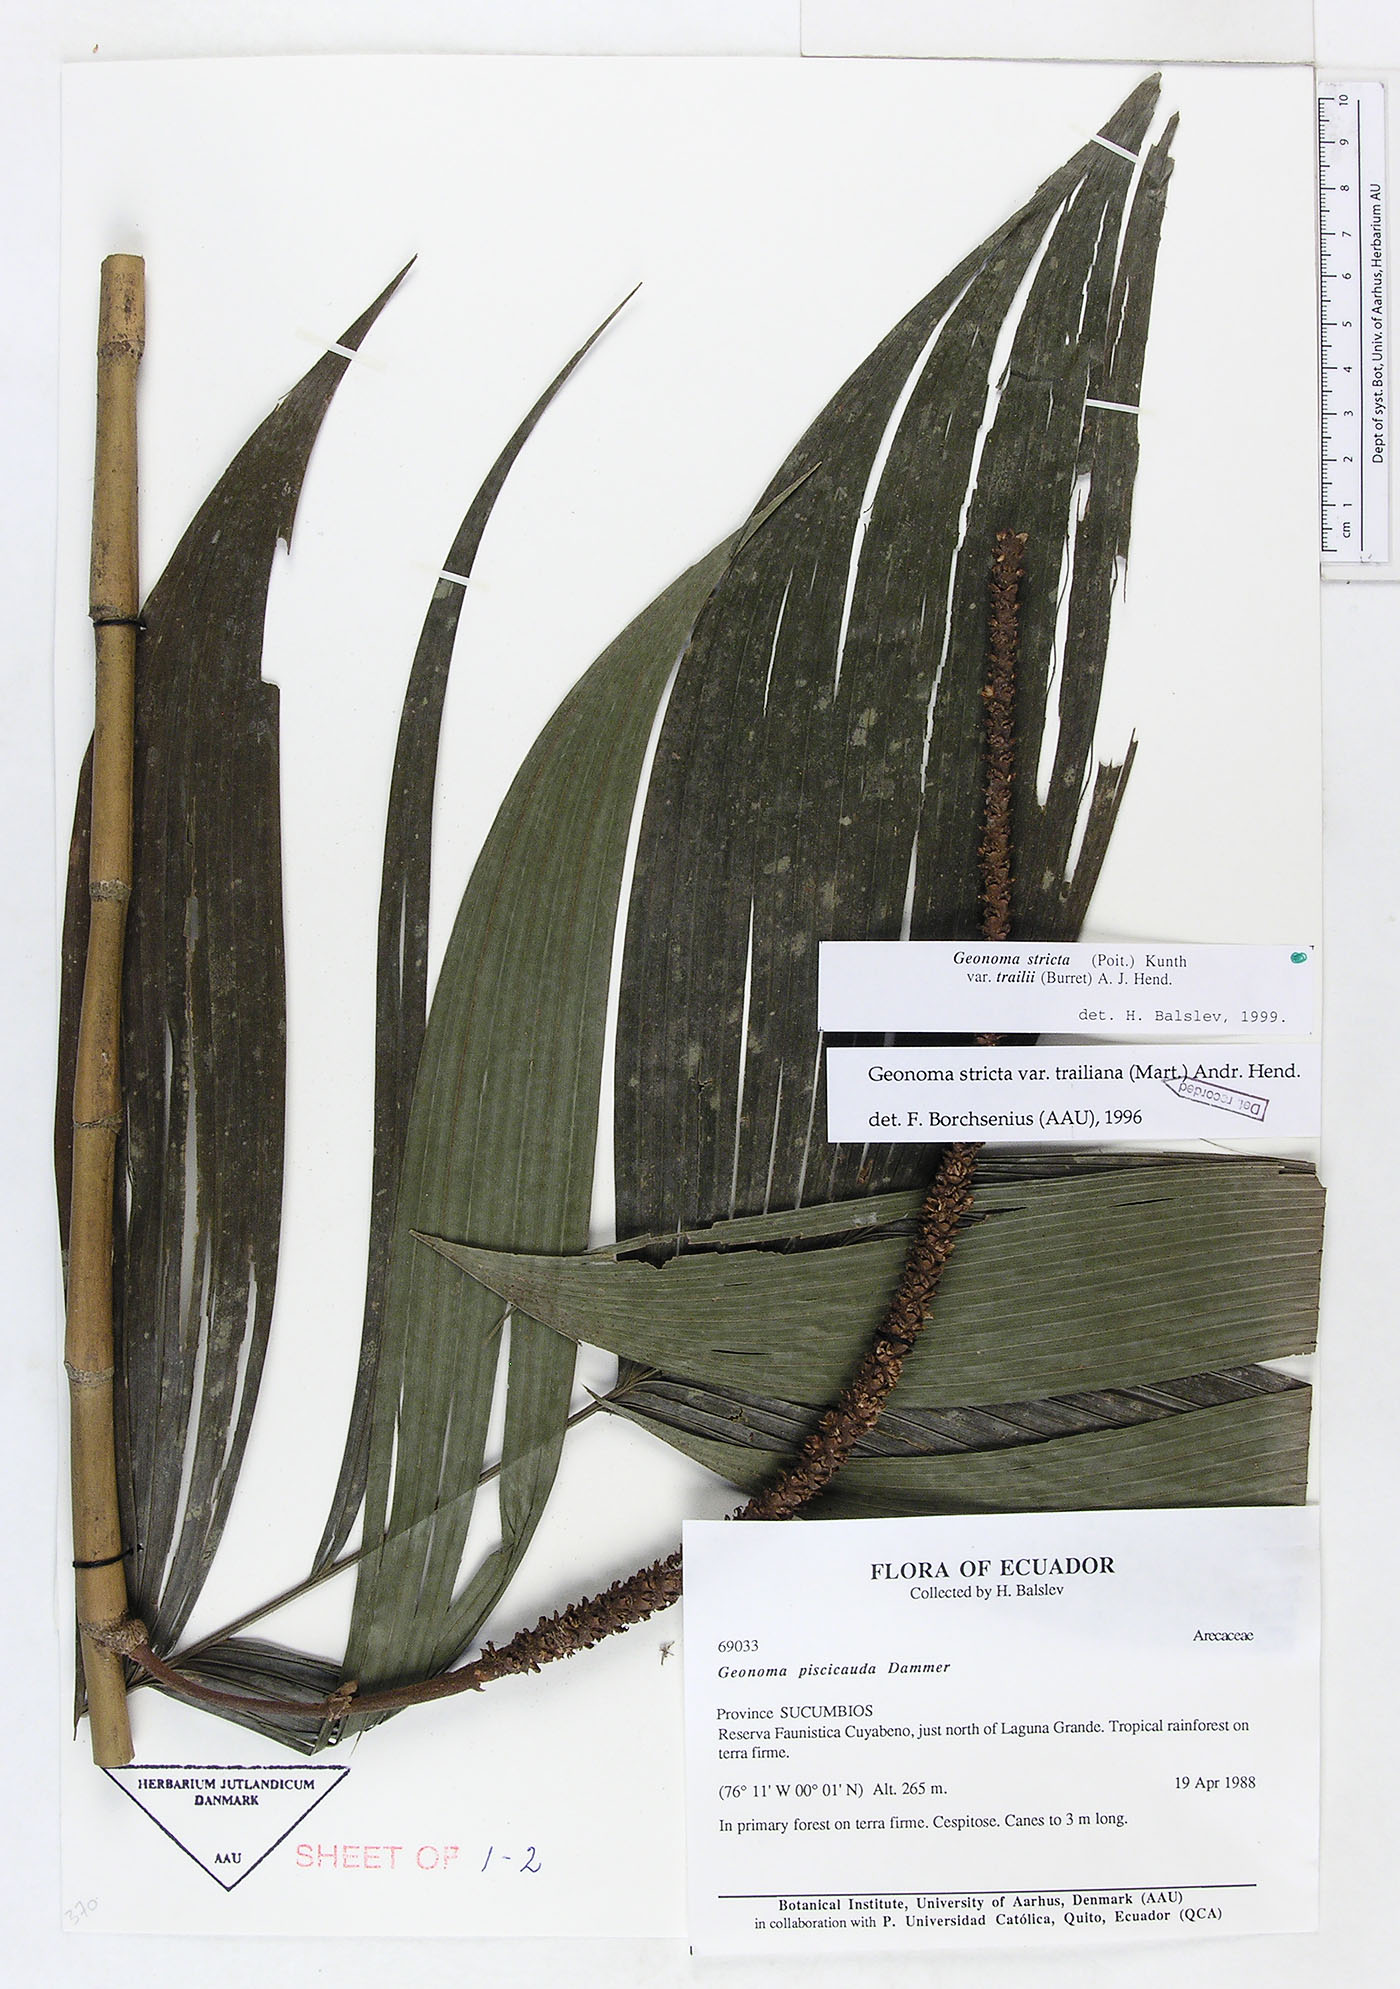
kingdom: Plantae
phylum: Tracheophyta
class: Liliopsida
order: Arecales
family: Arecaceae
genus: Geonoma
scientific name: Geonoma stricta
